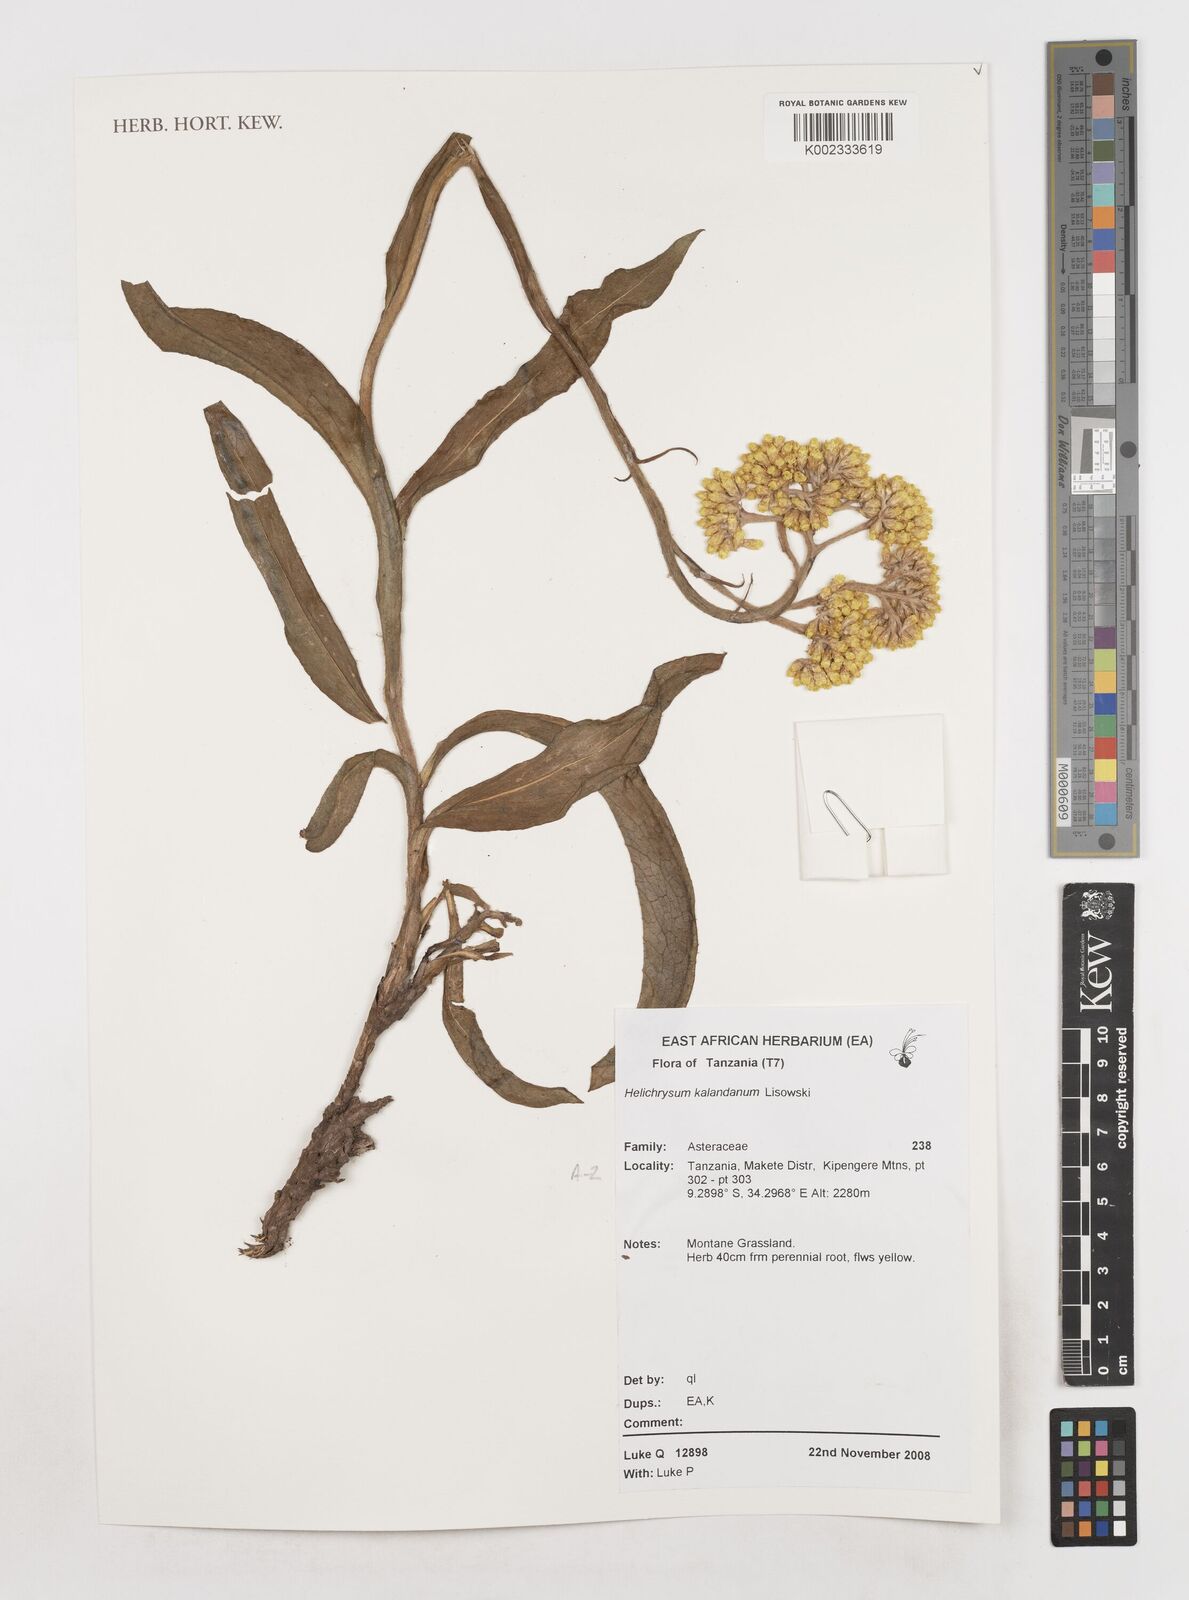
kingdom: Plantae
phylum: Tracheophyta
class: Magnoliopsida
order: Asterales
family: Asteraceae
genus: Helichrysum
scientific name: Helichrysum kalandanum
